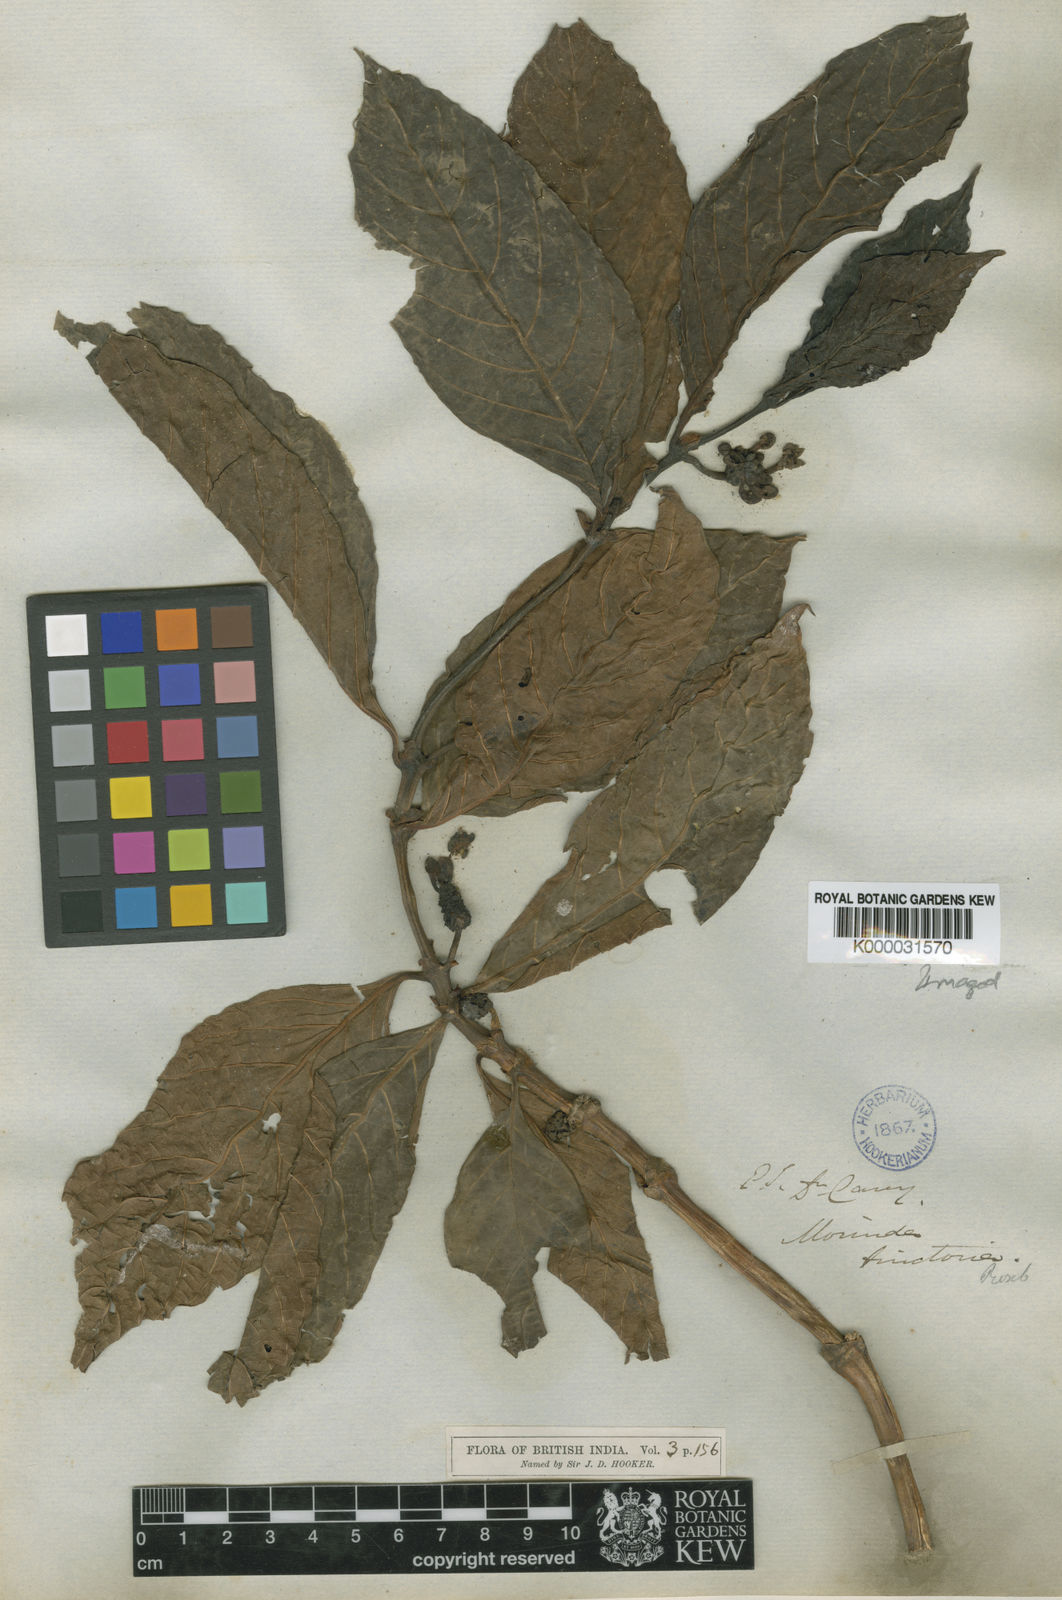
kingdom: Plantae
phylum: Tracheophyta
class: Magnoliopsida
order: Gentianales
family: Rubiaceae
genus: Morinda
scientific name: Morinda coreia
